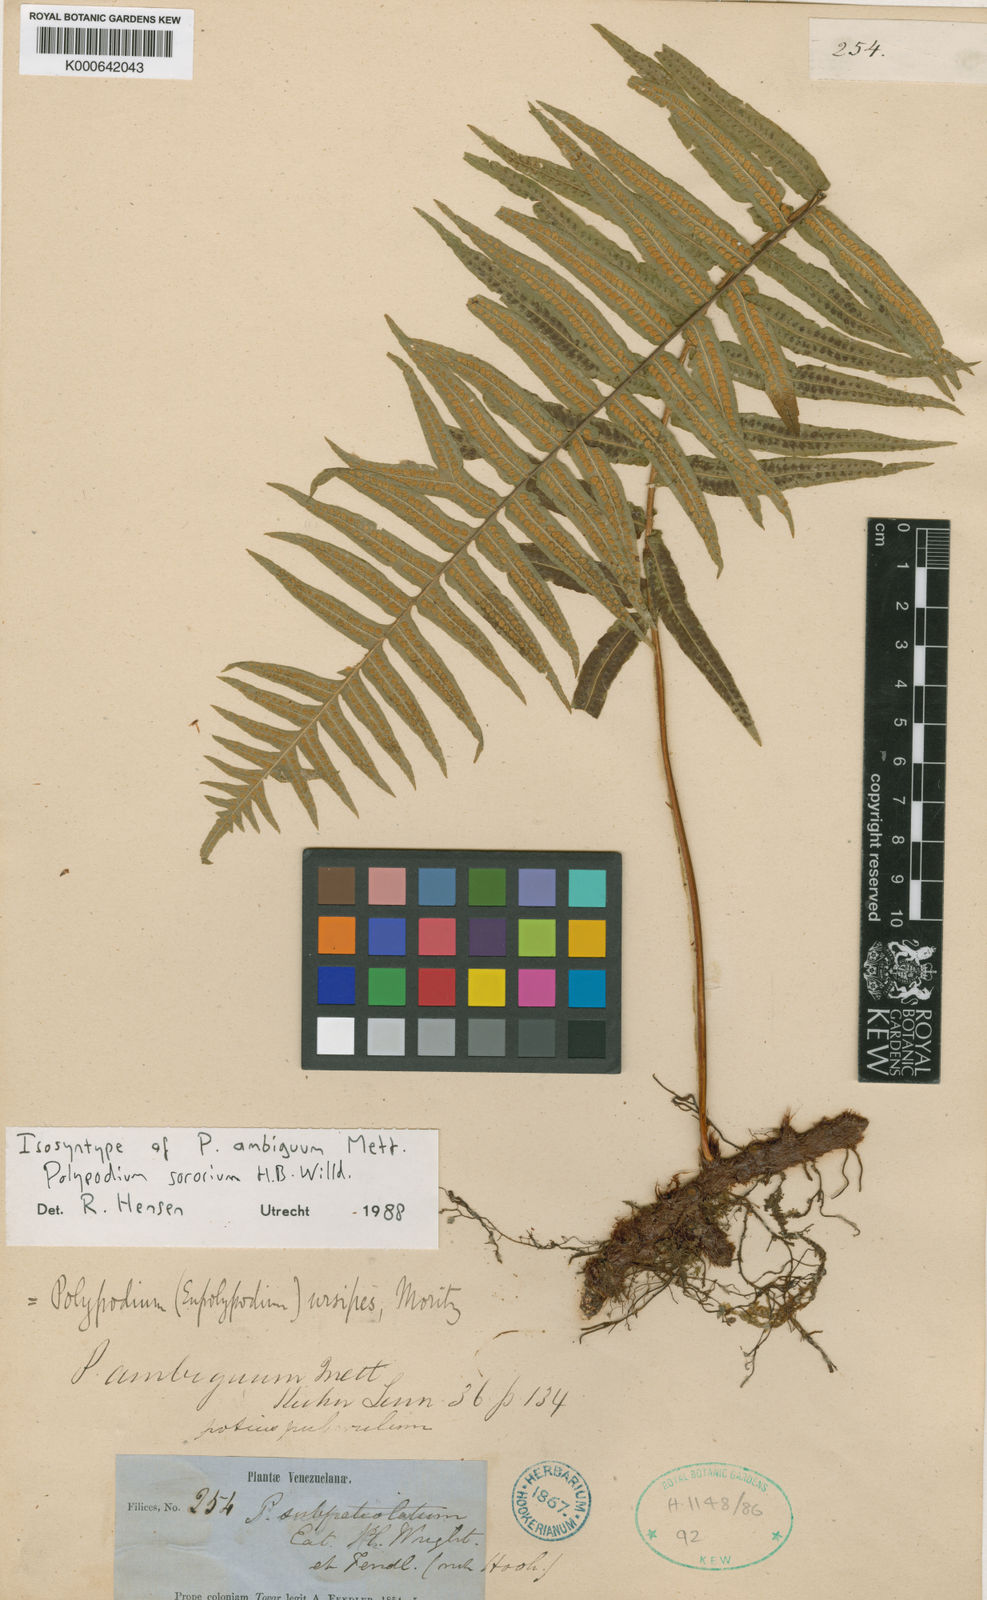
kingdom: Plantae
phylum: Tracheophyta
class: Polypodiopsida
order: Polypodiales
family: Polypodiaceae
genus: Pecluma
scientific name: Pecluma dulcis
